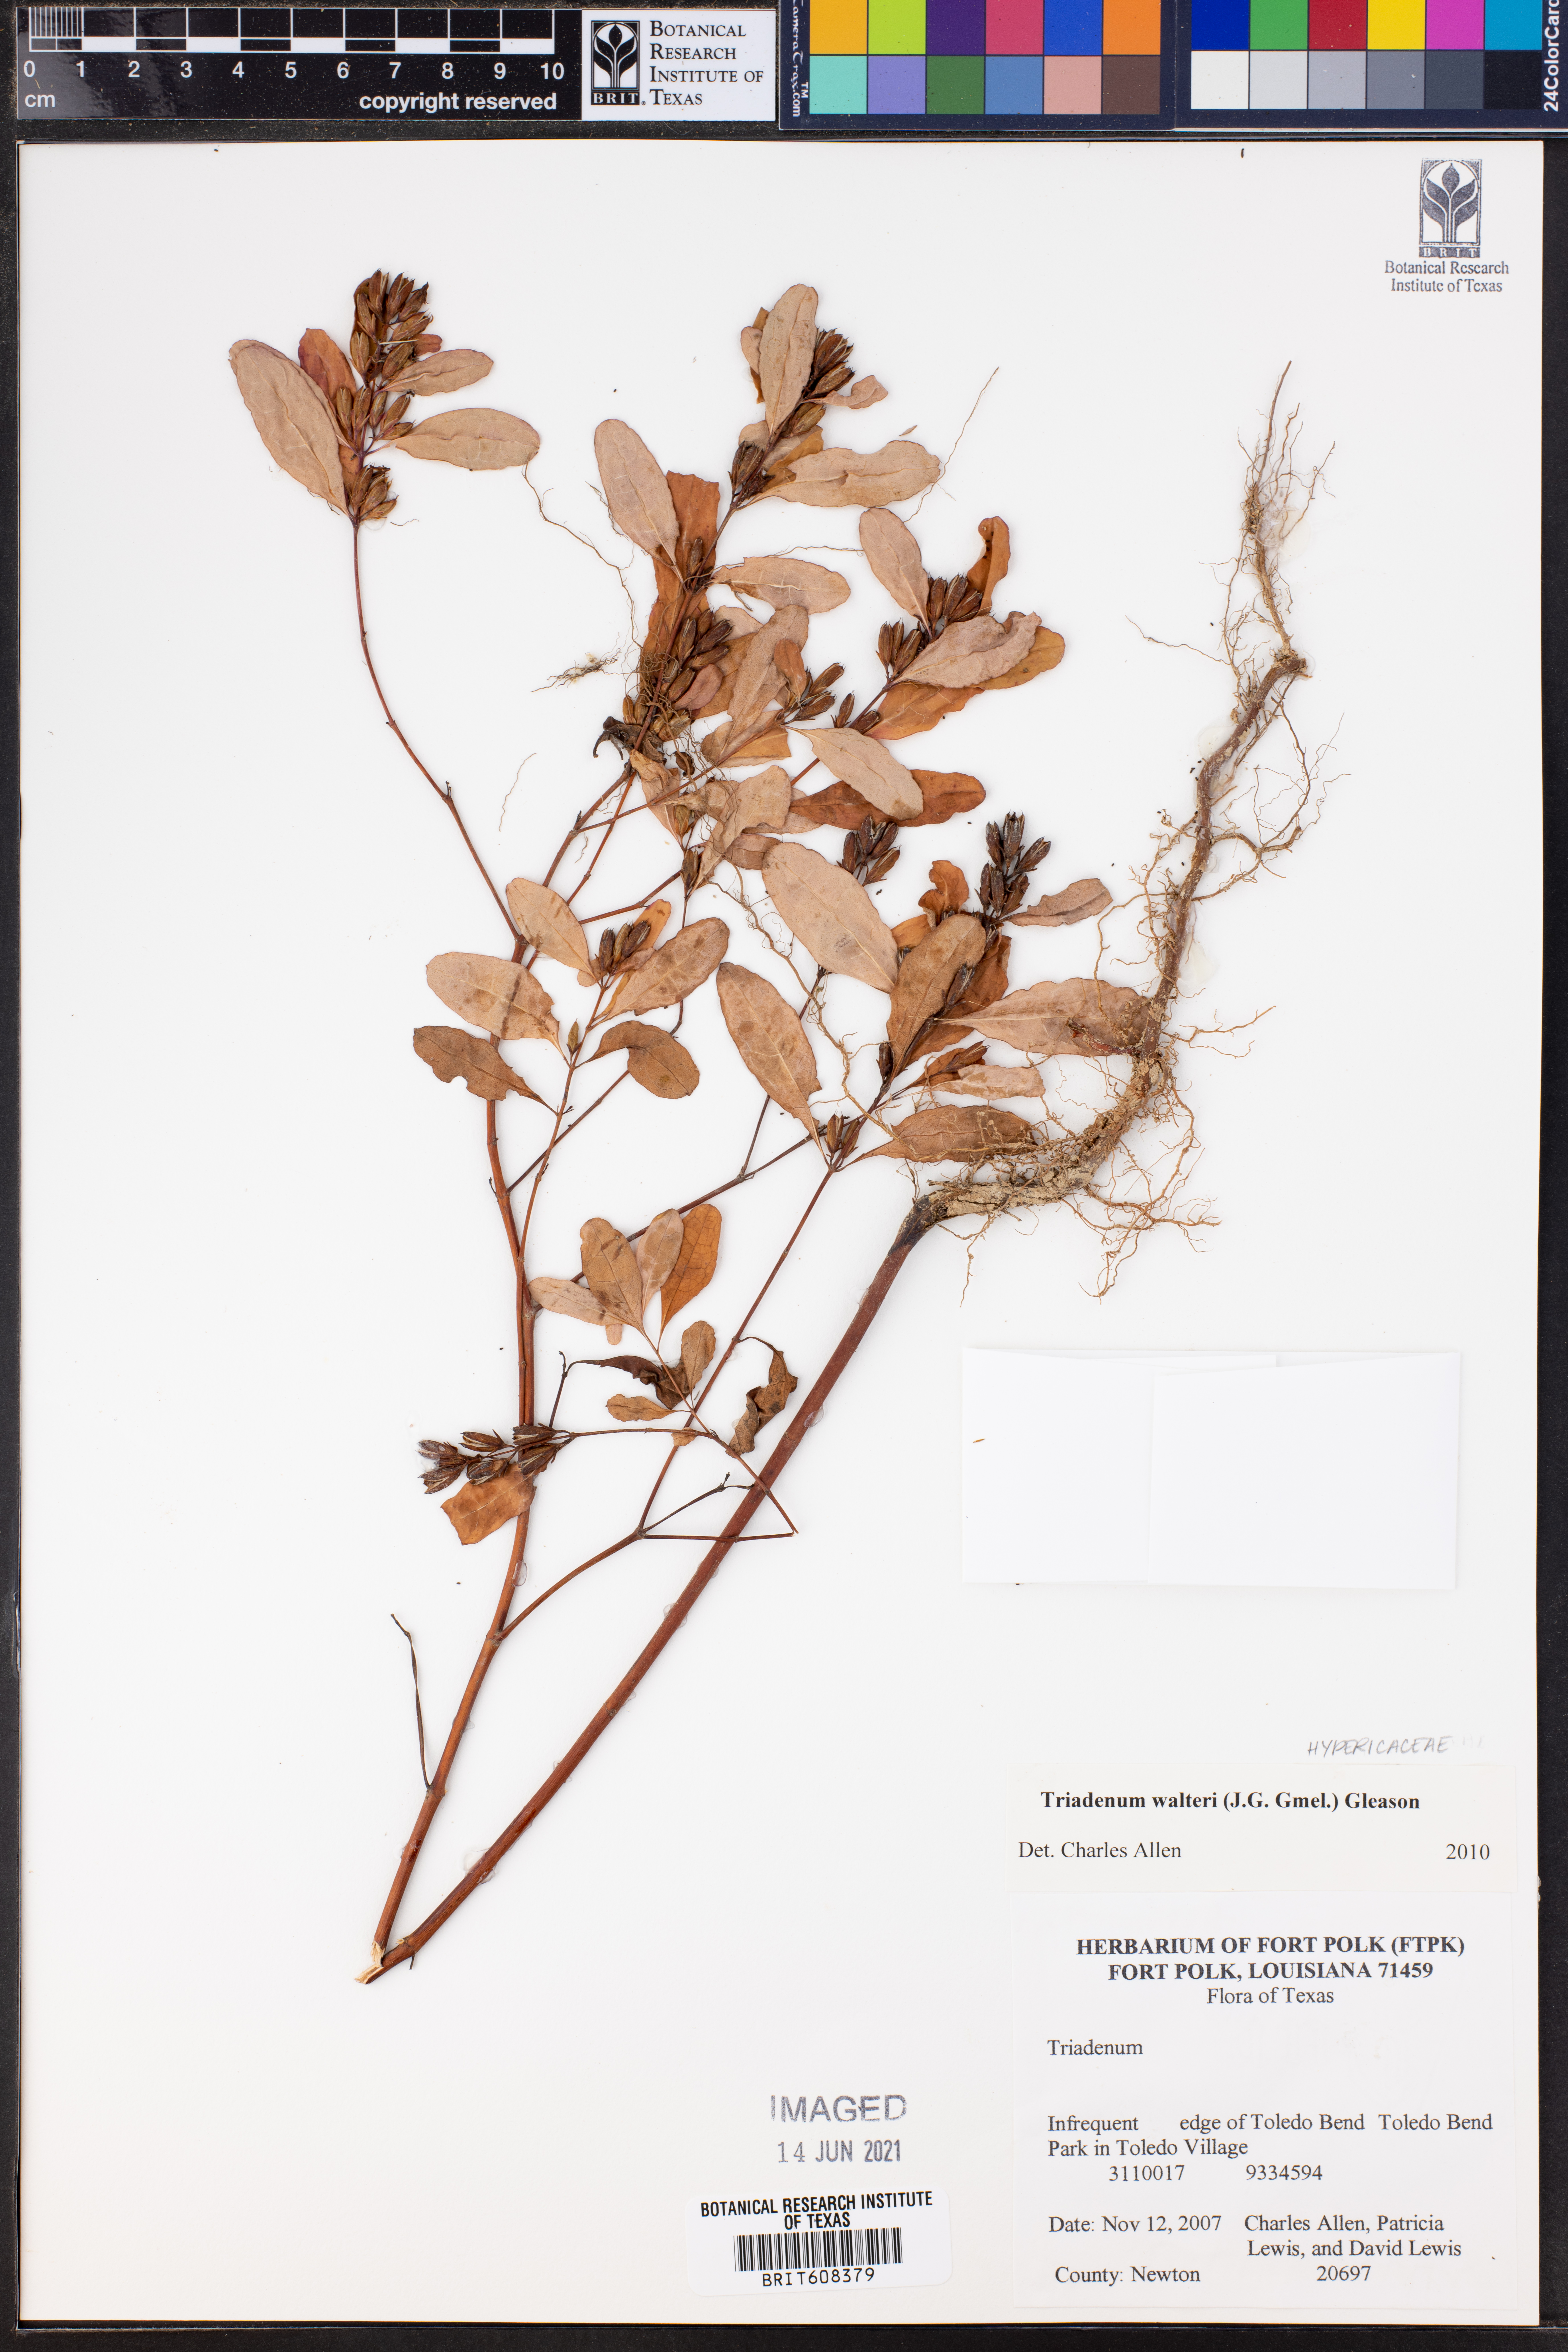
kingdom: Plantae
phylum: Tracheophyta
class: Magnoliopsida
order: Malpighiales
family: Hypericaceae
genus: Triadenum
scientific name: Triadenum walteri
